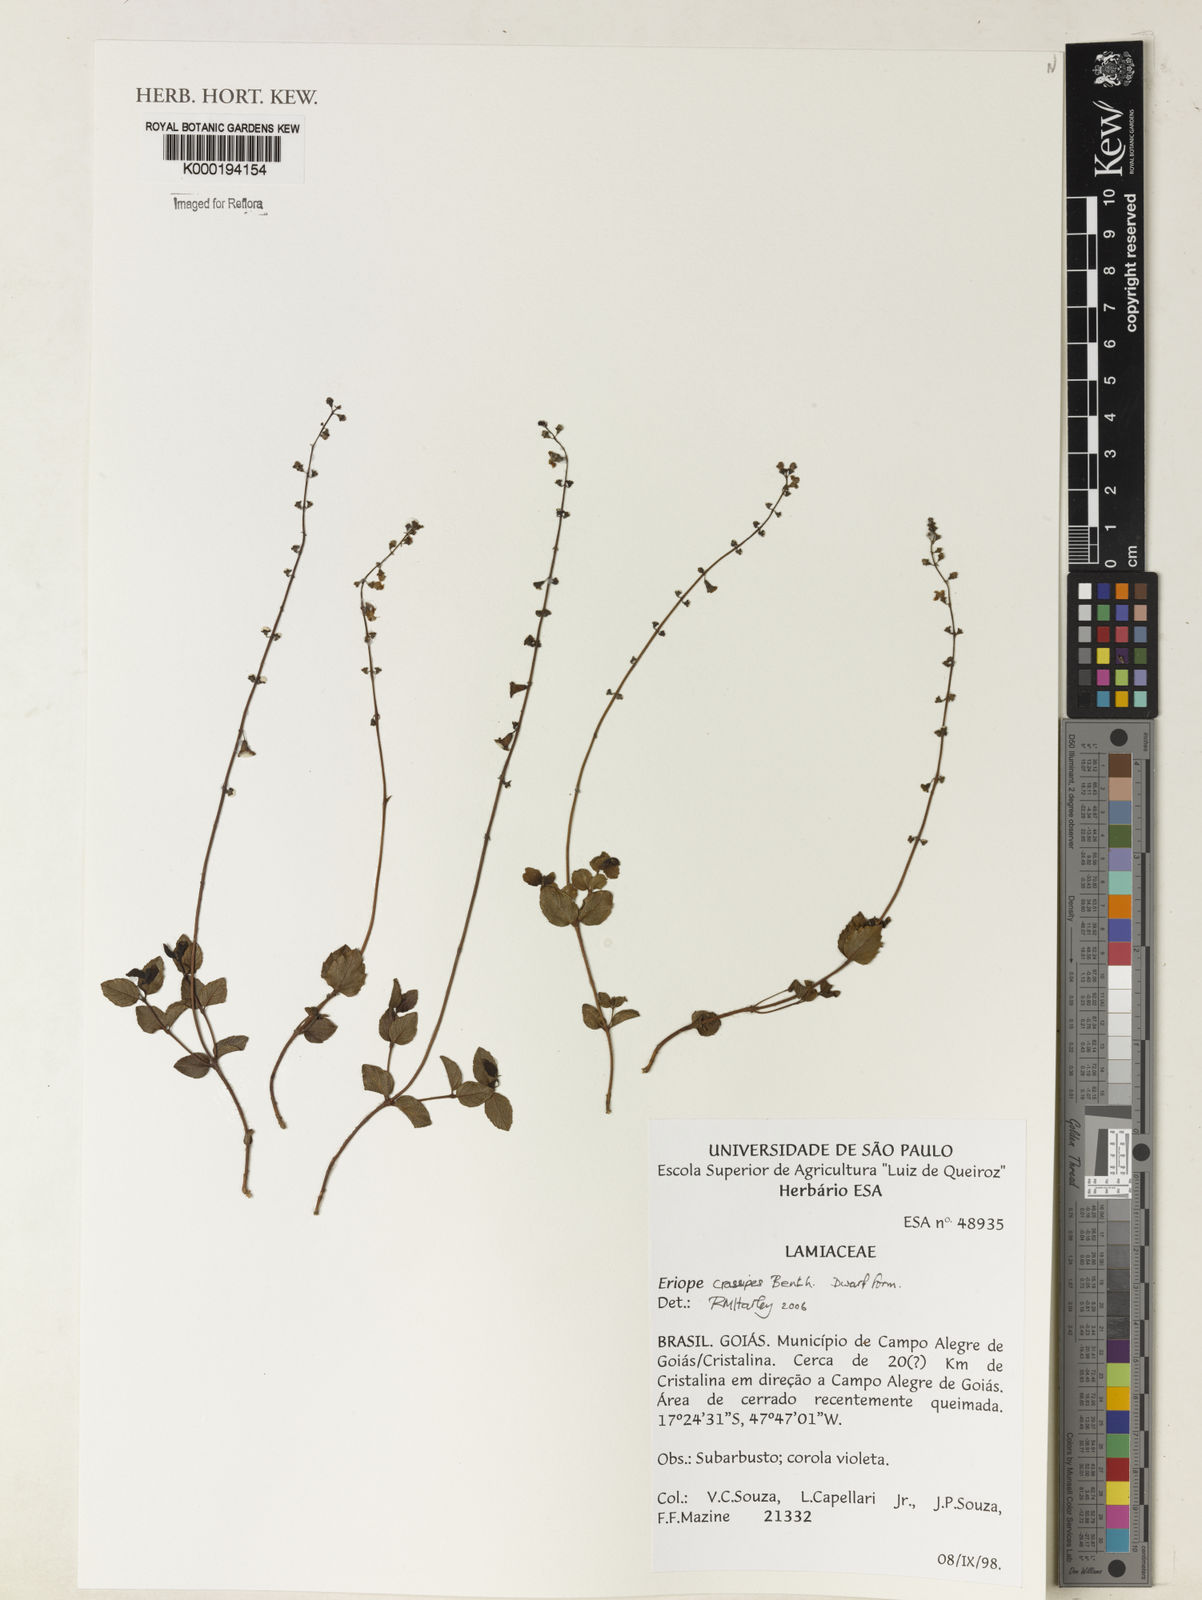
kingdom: Plantae
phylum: Tracheophyta
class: Magnoliopsida
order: Lamiales
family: Lamiaceae
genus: Eriope
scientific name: Eriope crassipes
